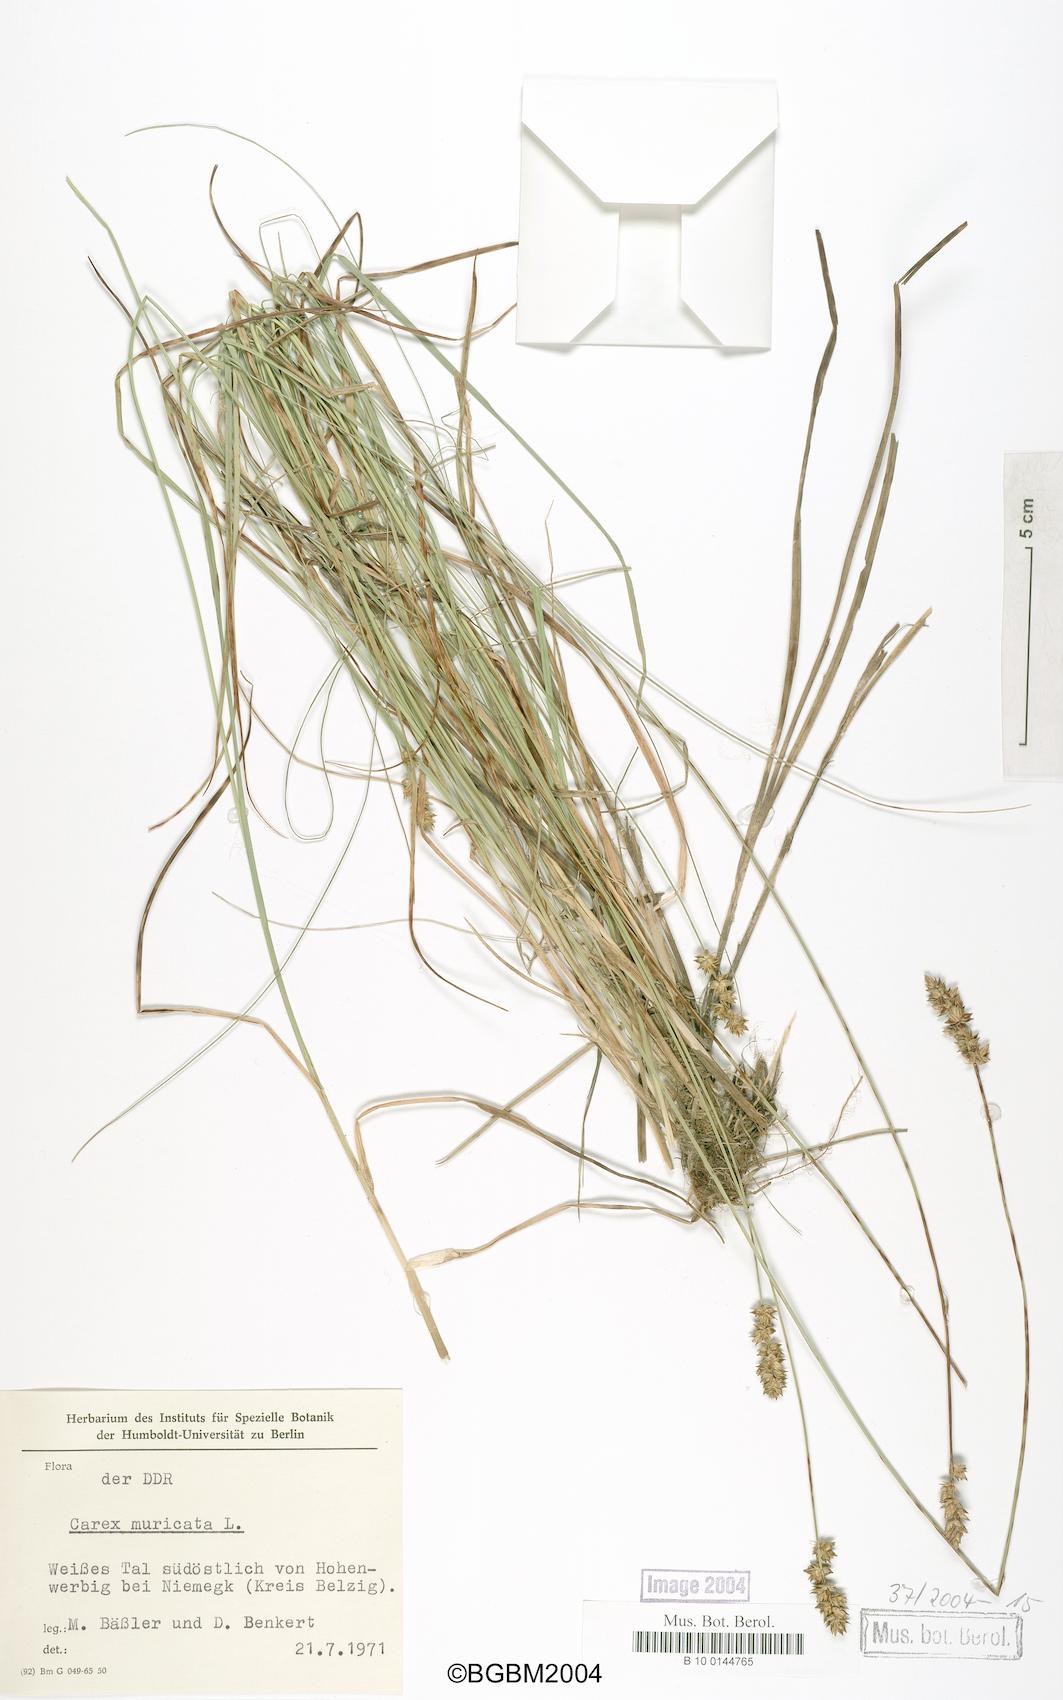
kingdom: Plantae
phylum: Tracheophyta
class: Liliopsida
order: Poales
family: Cyperaceae
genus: Carex
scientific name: Carex muricata
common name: Rough sedge
